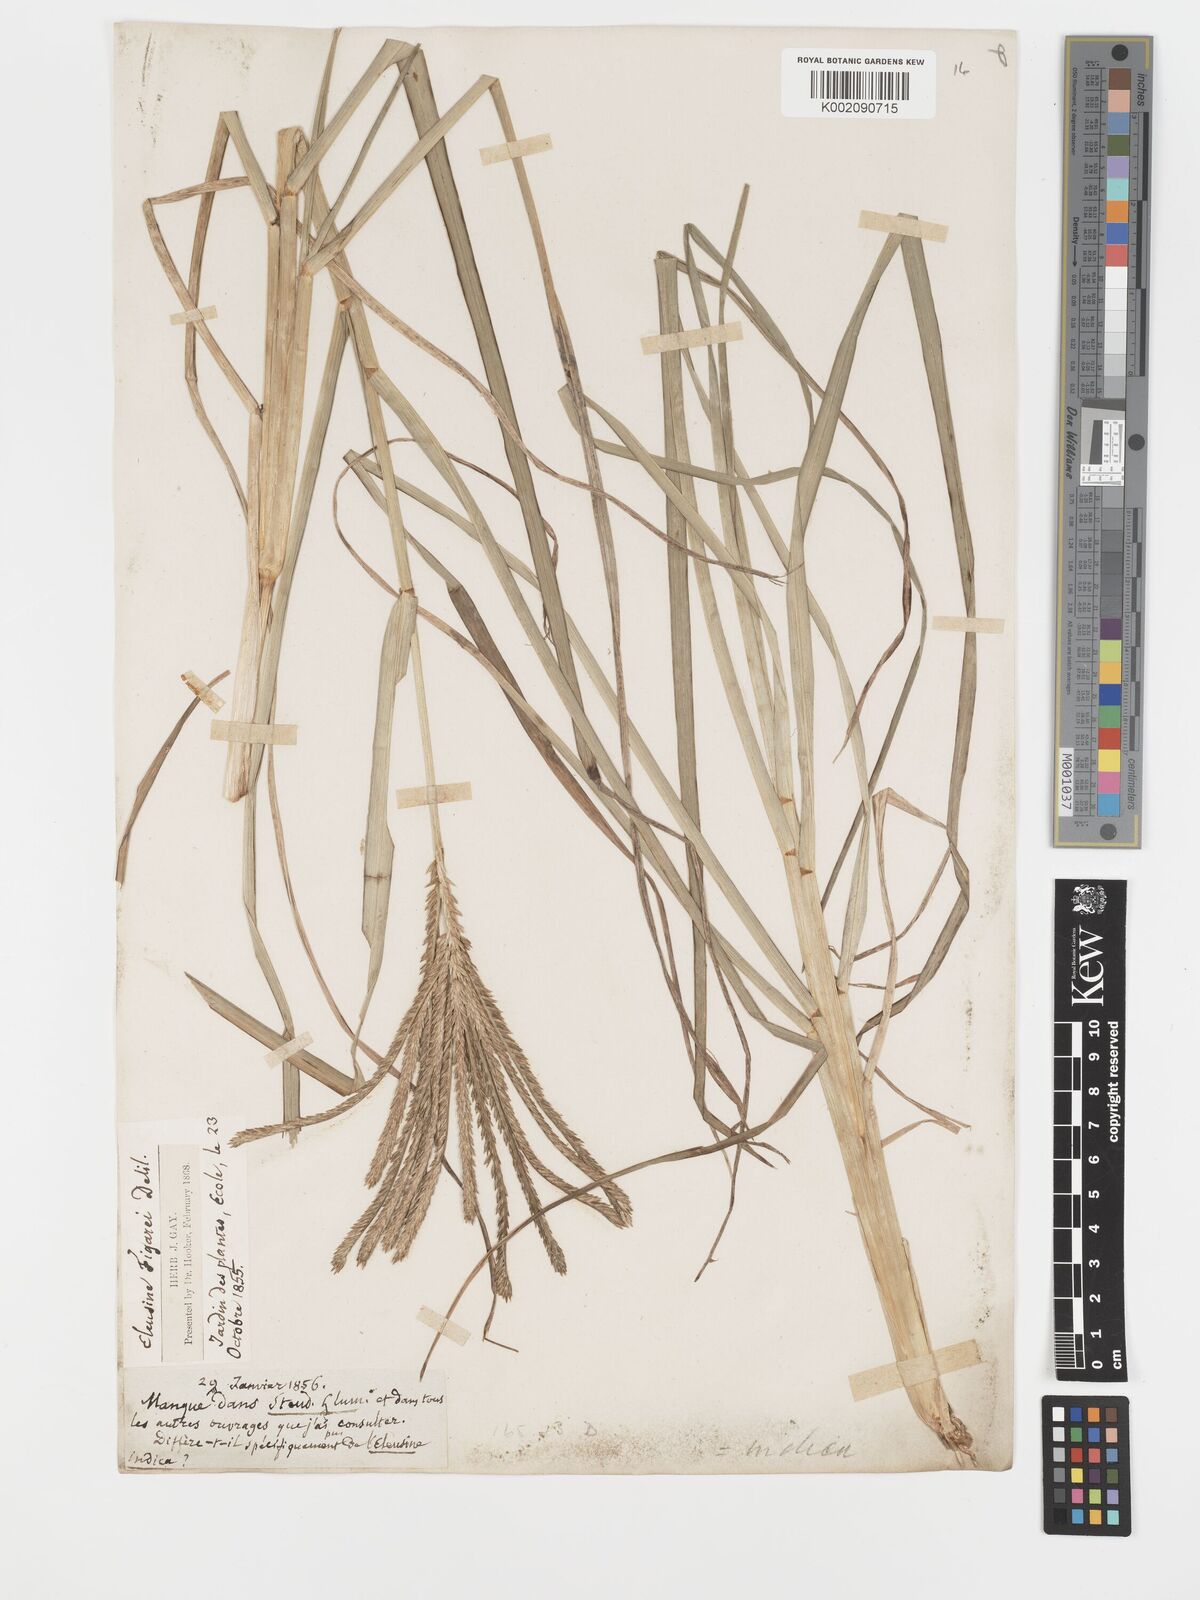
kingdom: Plantae
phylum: Tracheophyta
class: Liliopsida
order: Poales
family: Poaceae
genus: Eleusine
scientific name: Eleusine africana
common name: Wild african finger millet
